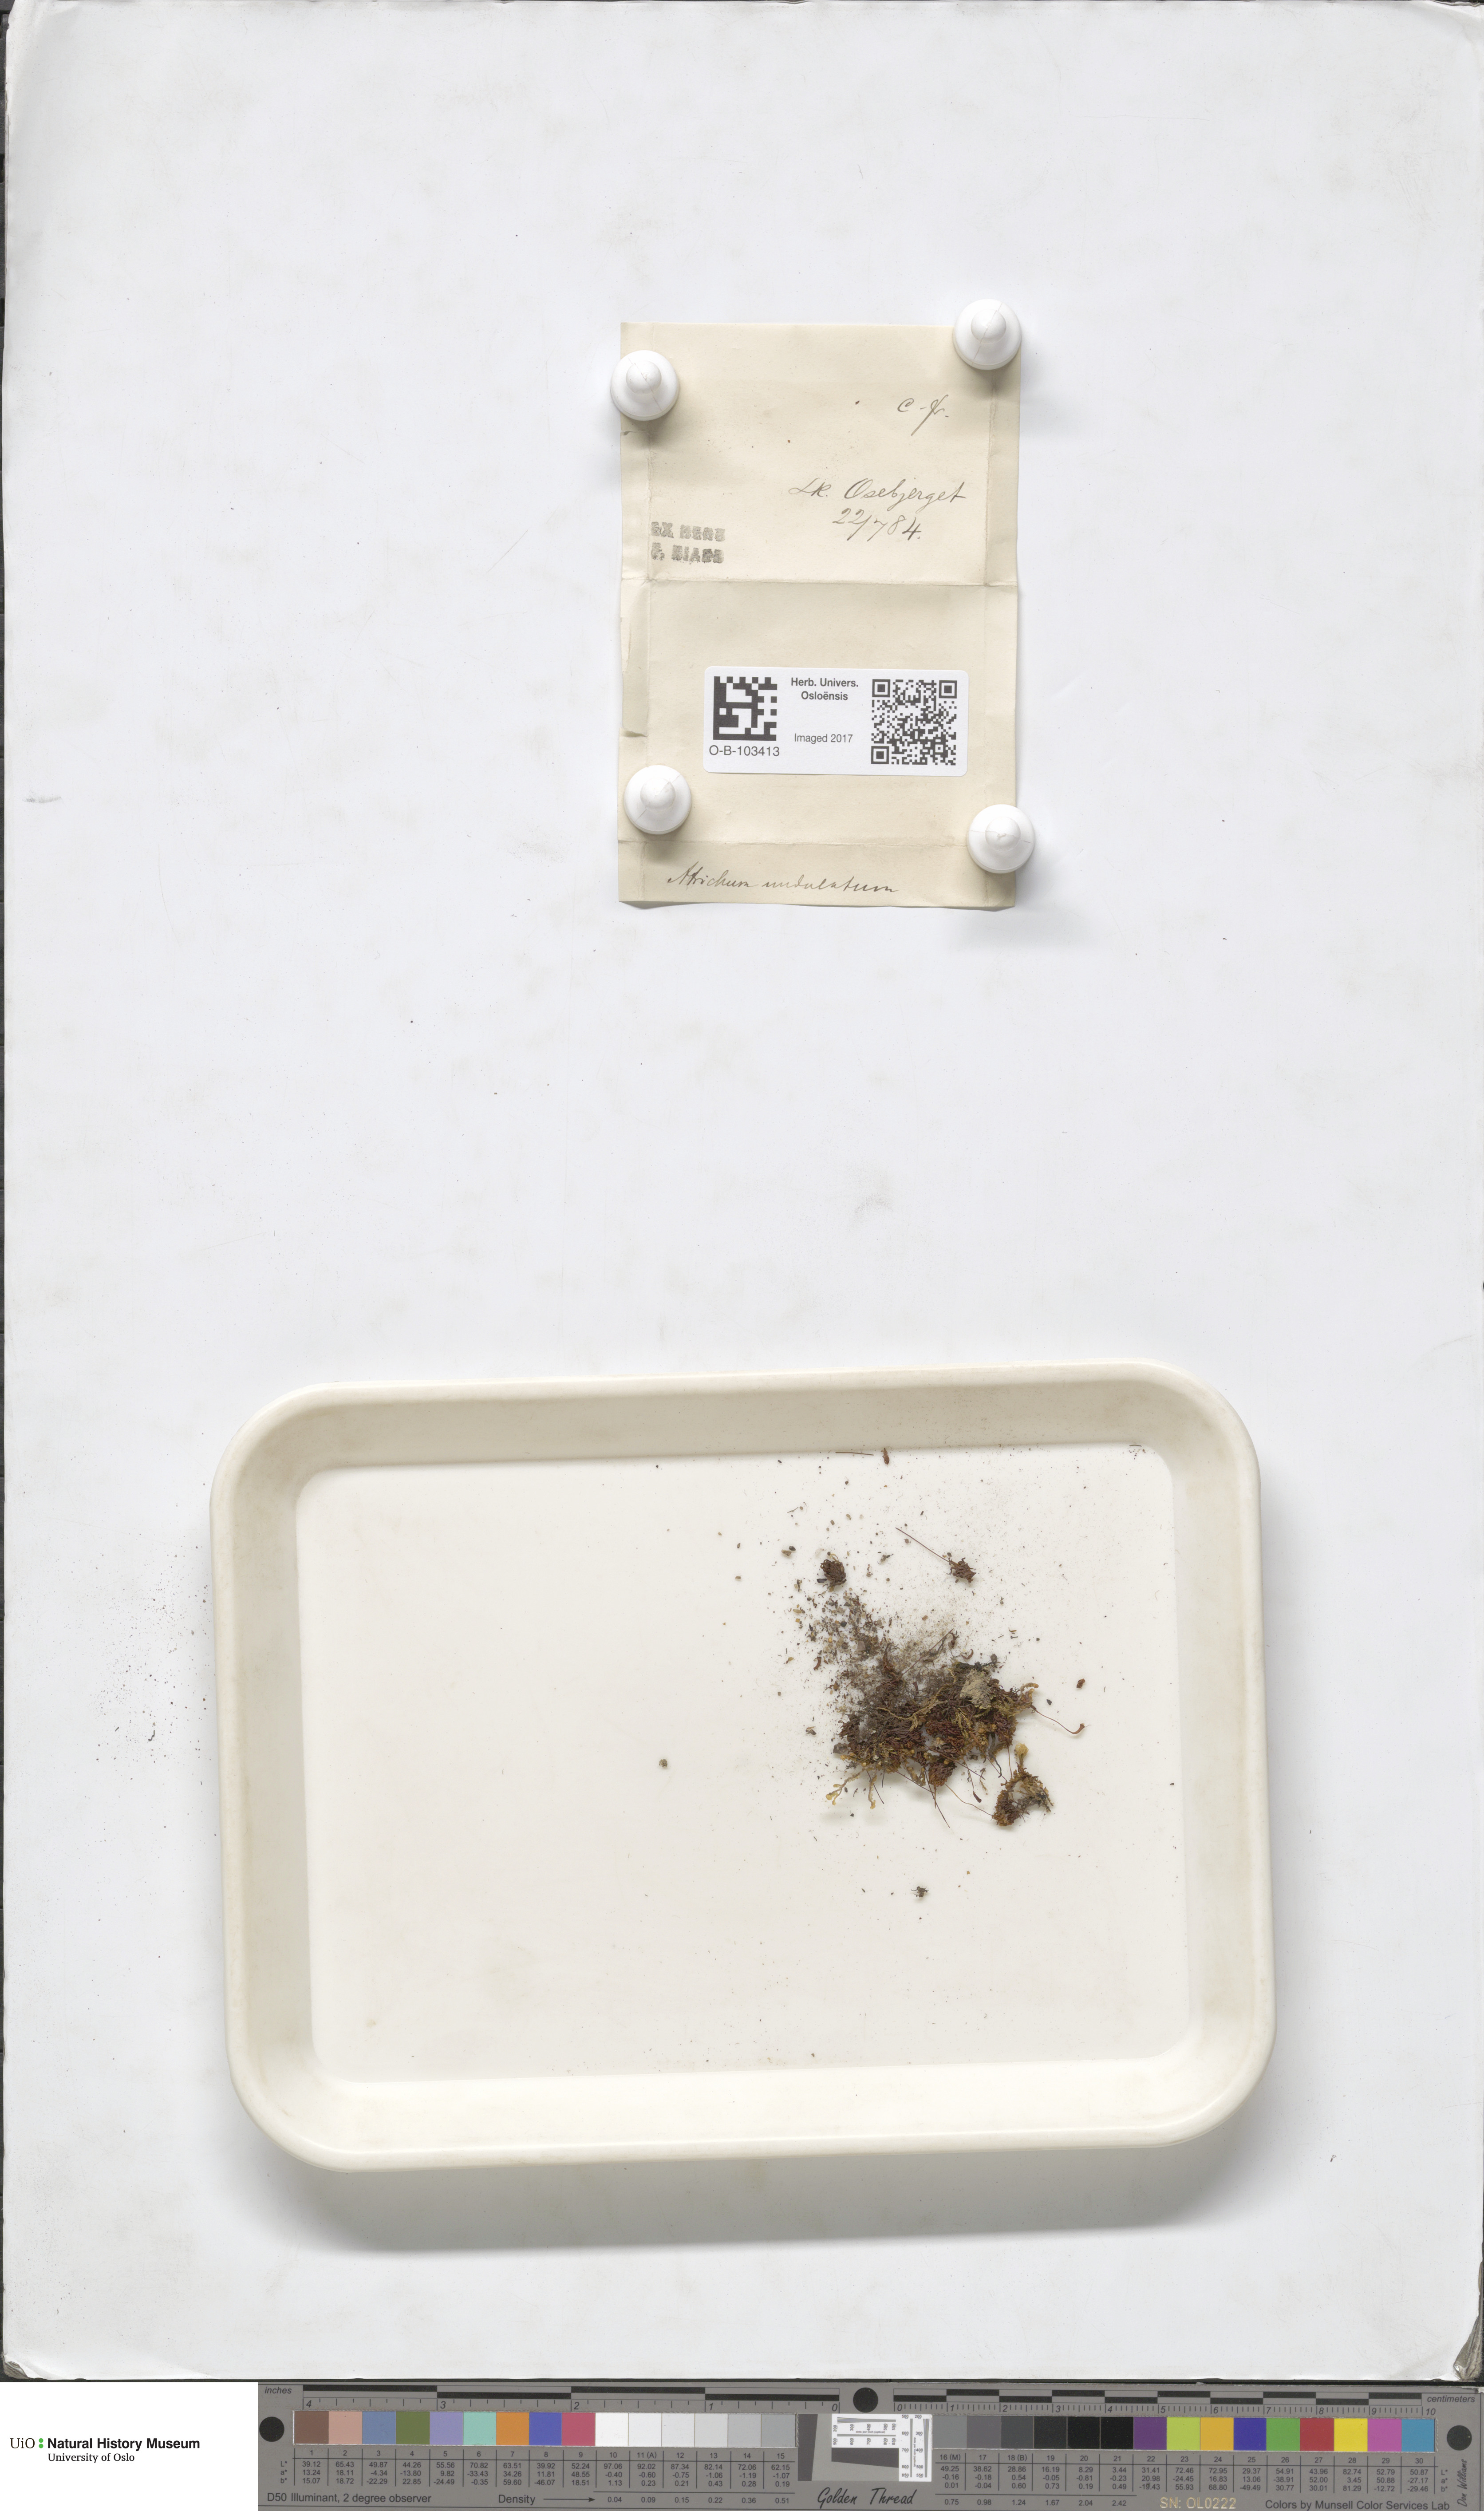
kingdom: Plantae
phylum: Bryophyta
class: Polytrichopsida
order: Polytrichales
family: Polytrichaceae
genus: Atrichum
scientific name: Atrichum undulatum
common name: Common smoothcap
